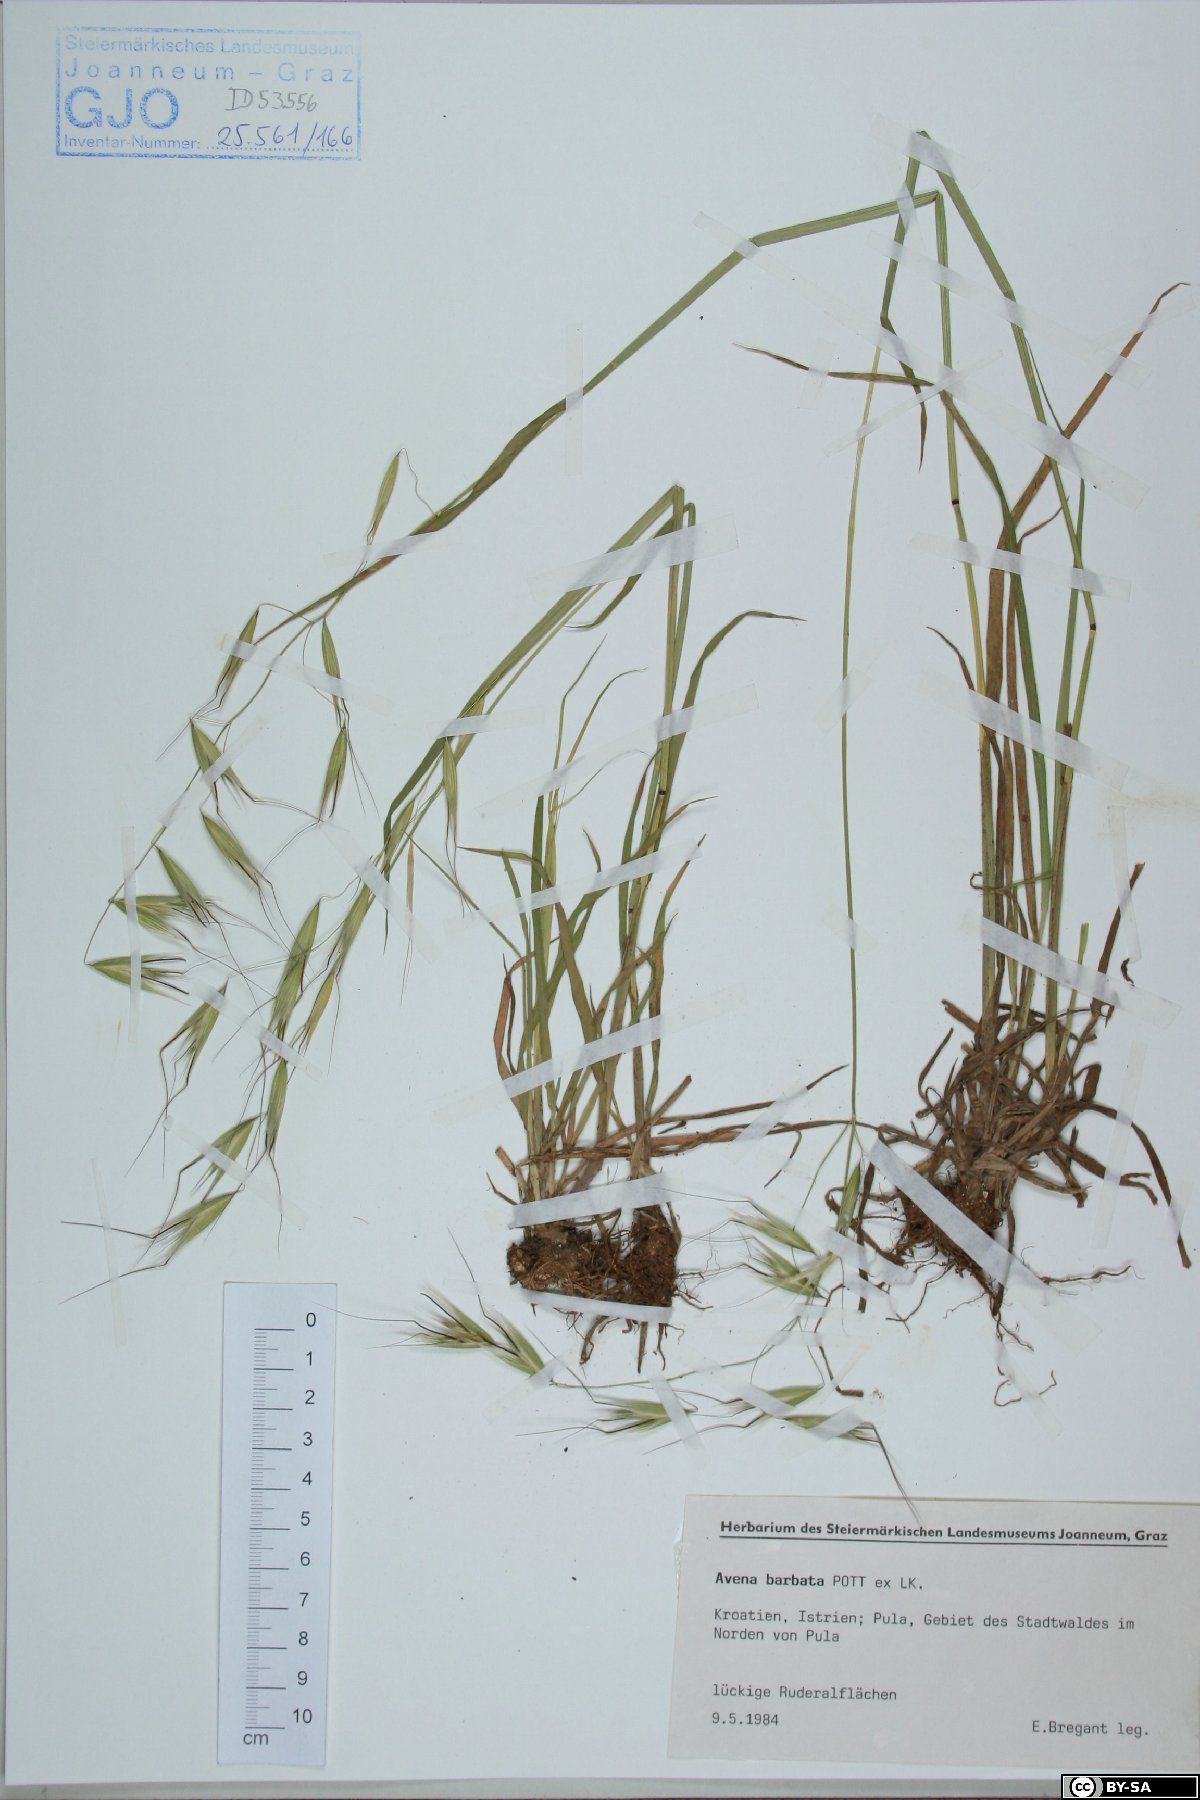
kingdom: Plantae
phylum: Tracheophyta
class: Liliopsida
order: Poales
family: Poaceae
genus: Avena
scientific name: Avena barbata
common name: Slender oat
